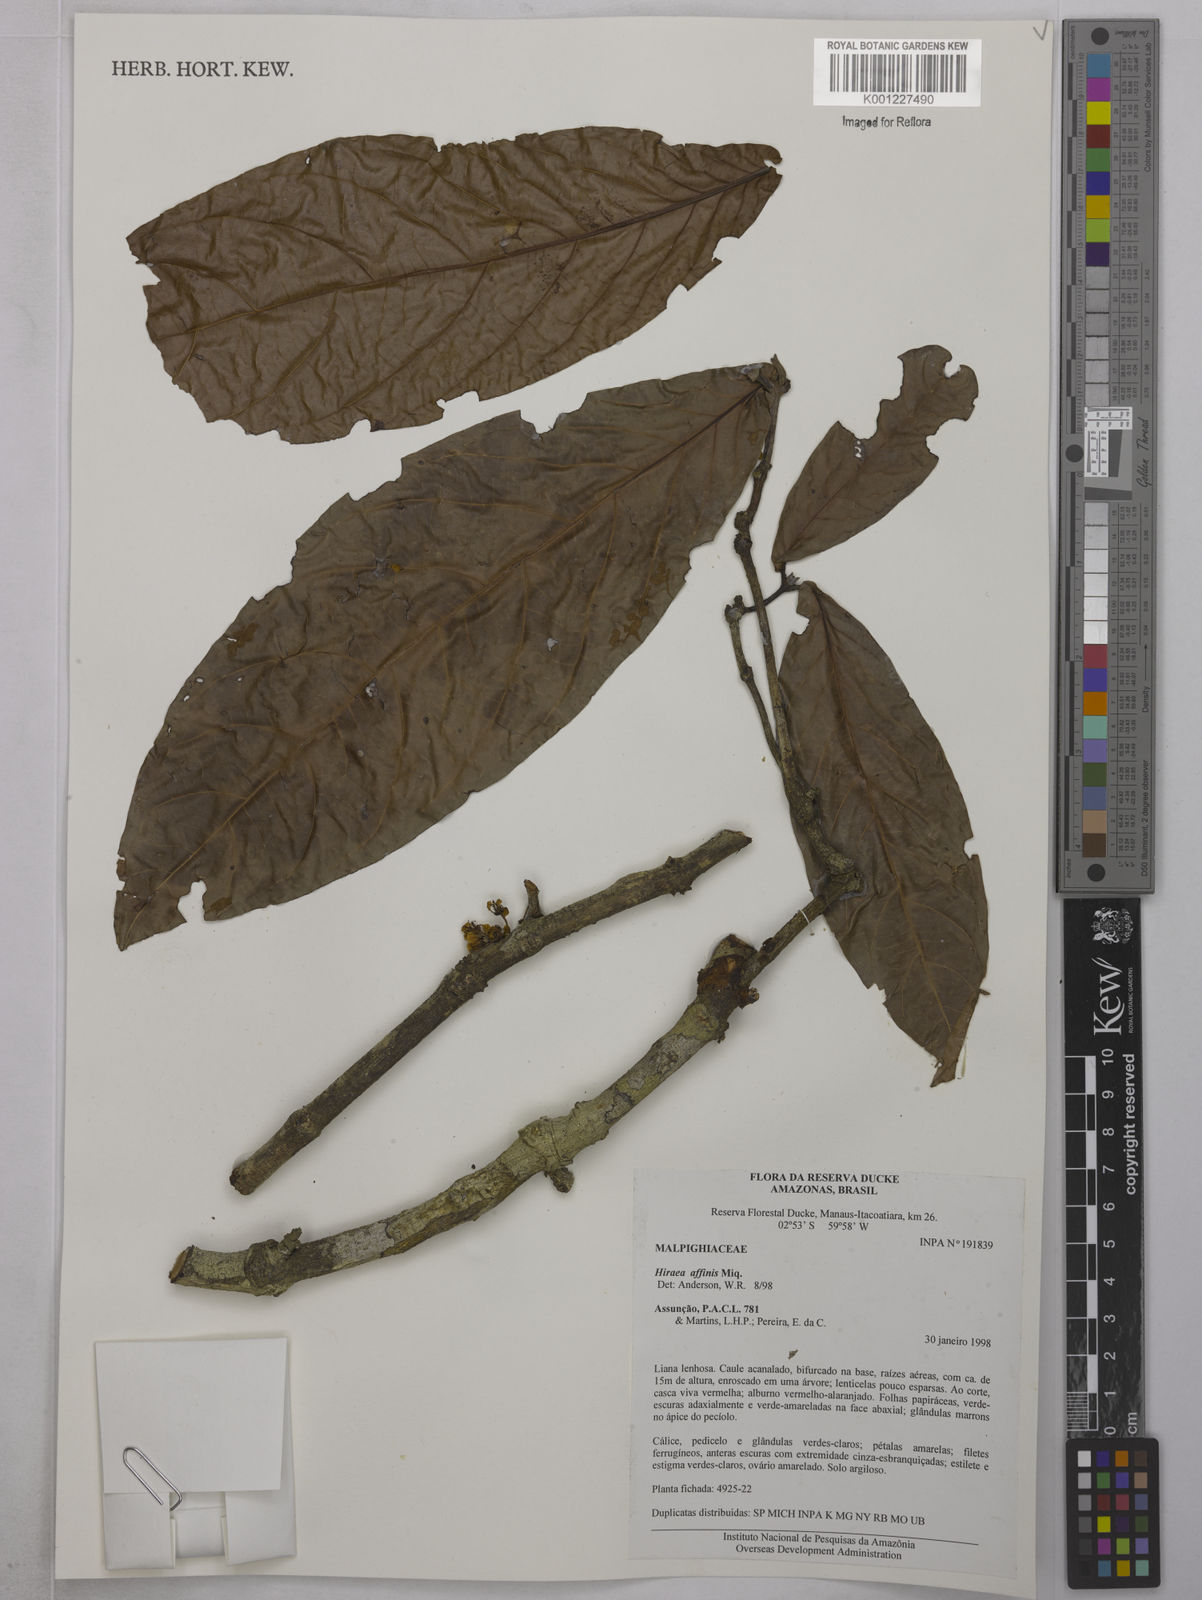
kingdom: Plantae
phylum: Tracheophyta
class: Magnoliopsida
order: Malpighiales
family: Malpighiaceae
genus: Hiraea
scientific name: Hiraea affinis
